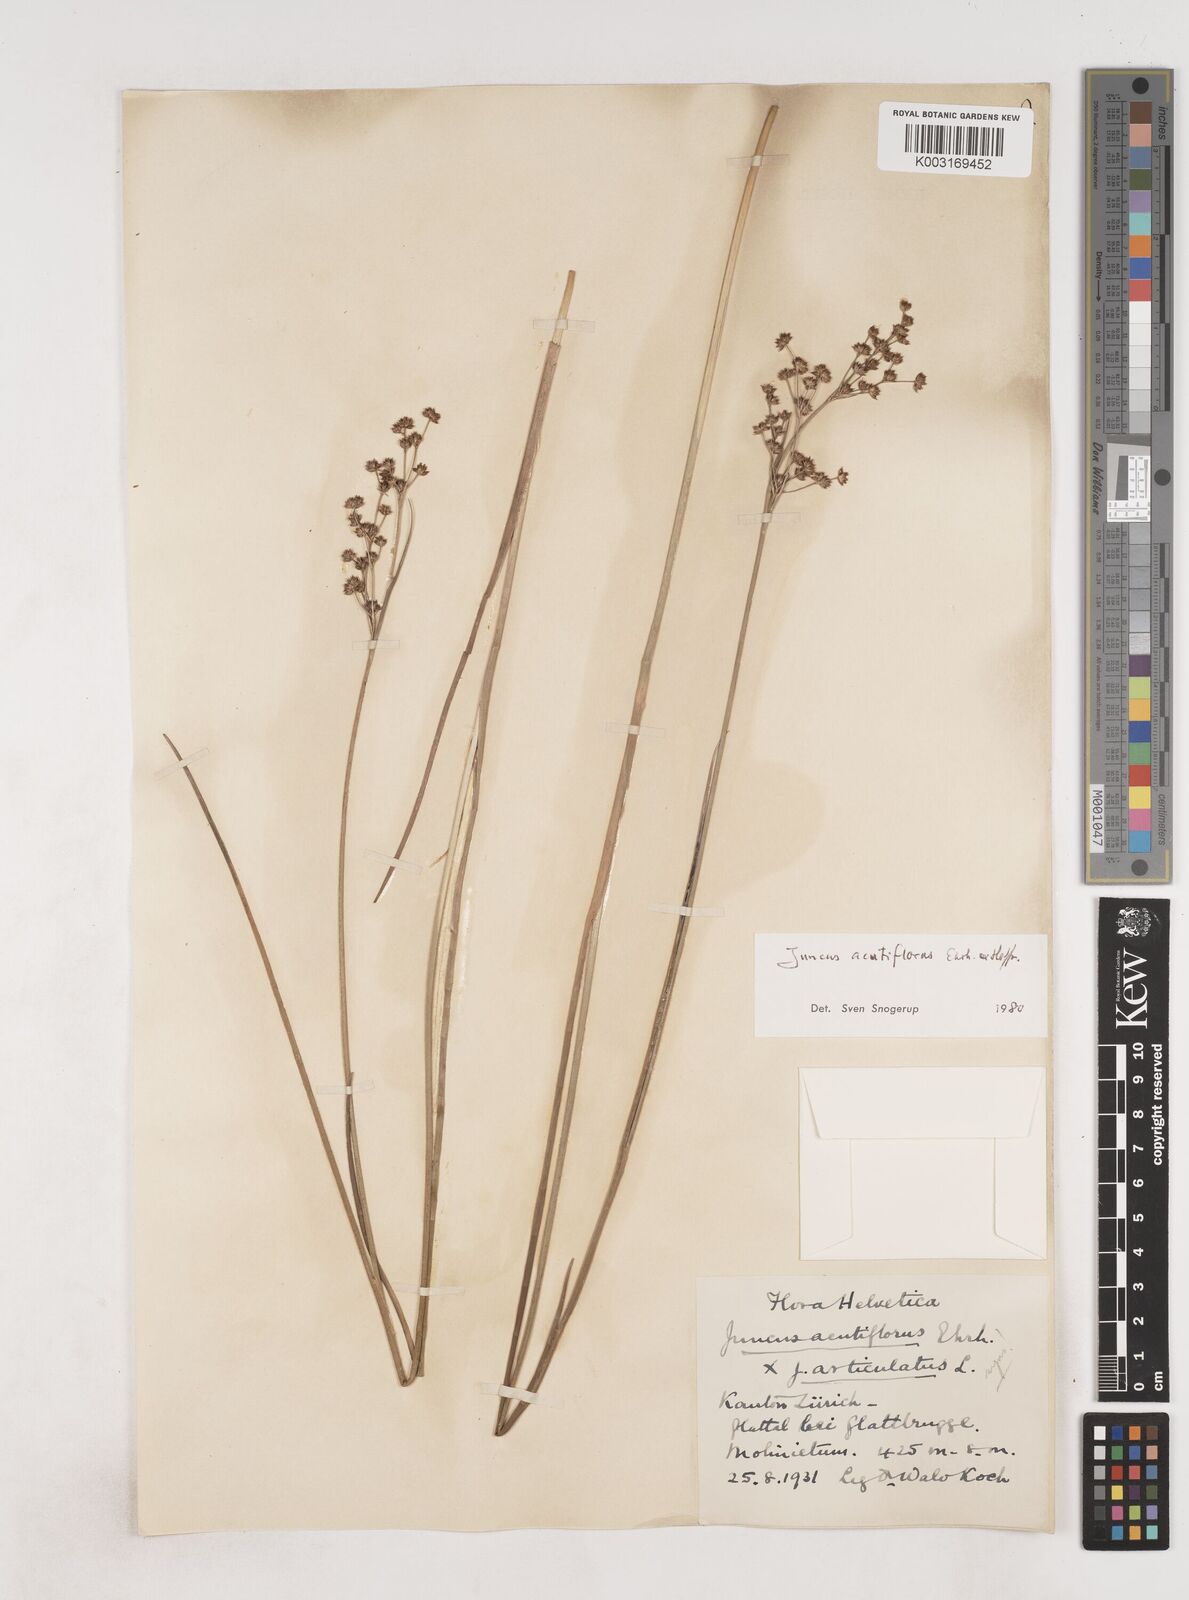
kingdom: Plantae
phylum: Tracheophyta
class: Liliopsida
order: Poales
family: Juncaceae
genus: Juncus
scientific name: Juncus acutiflorus
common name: Sharp-flowered rush
